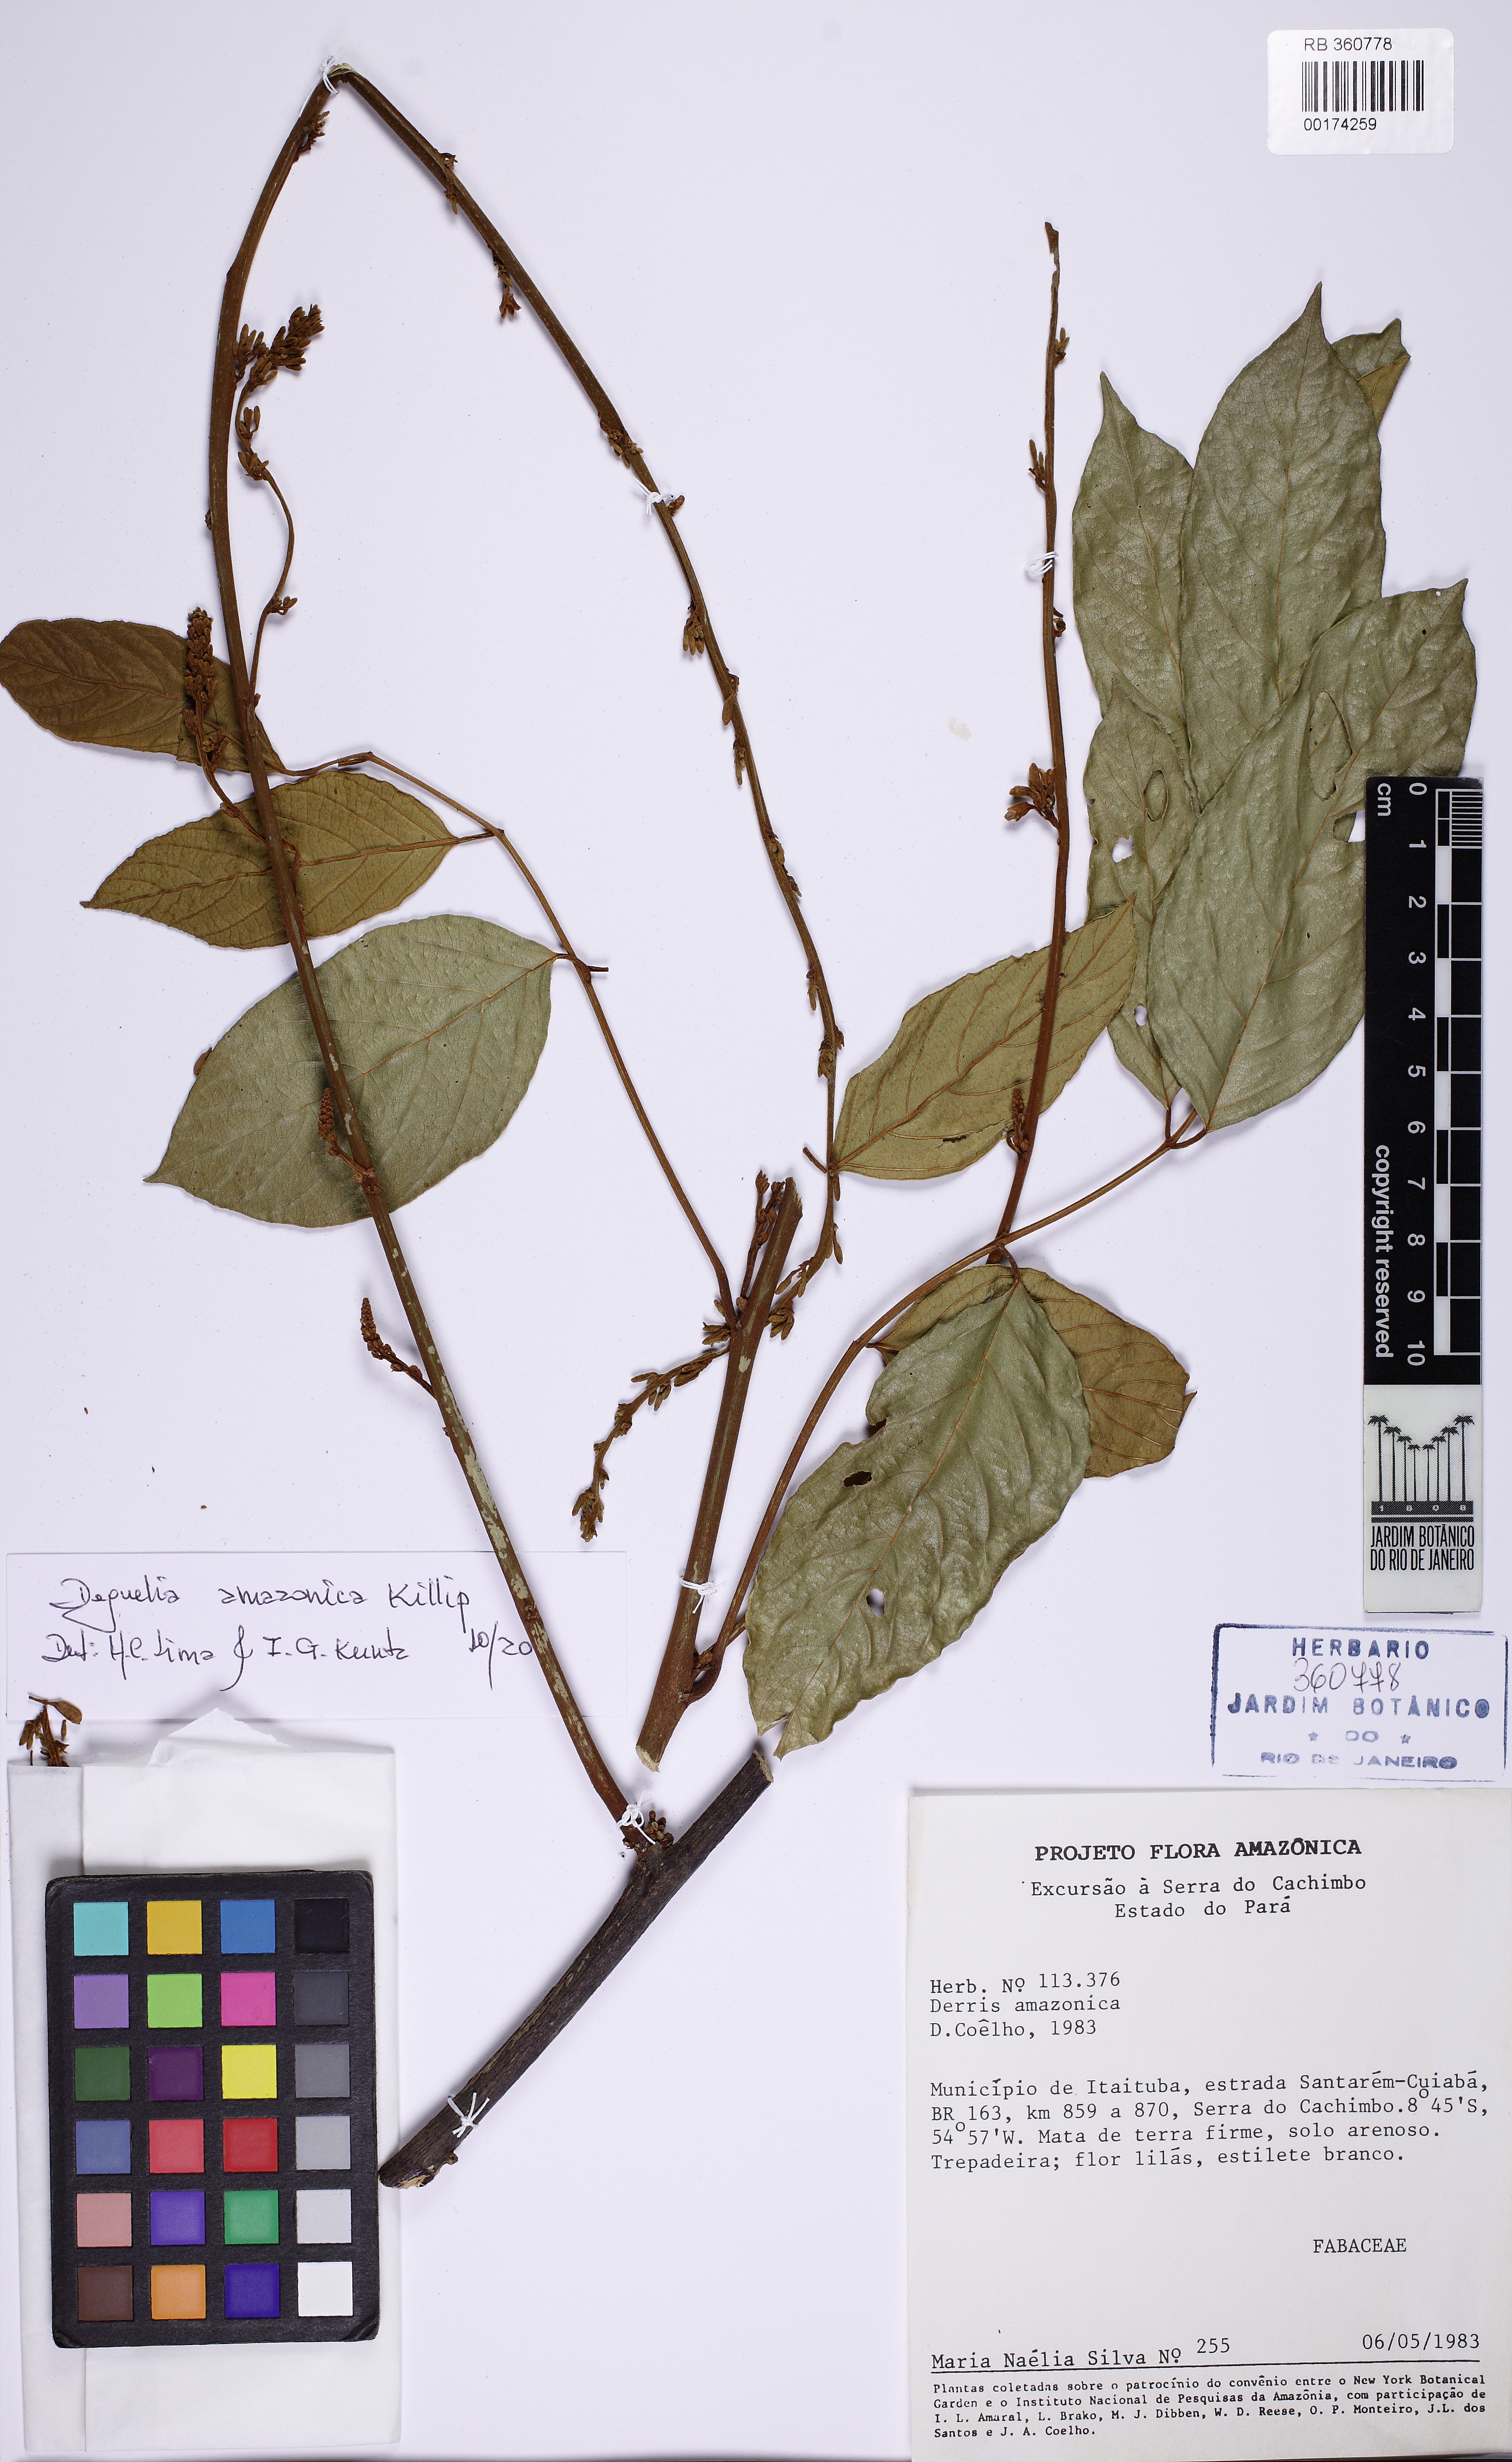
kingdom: Plantae
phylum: Tracheophyta
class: Magnoliopsida
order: Fabales
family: Fabaceae
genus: Deguelia
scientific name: Deguelia amazonica
